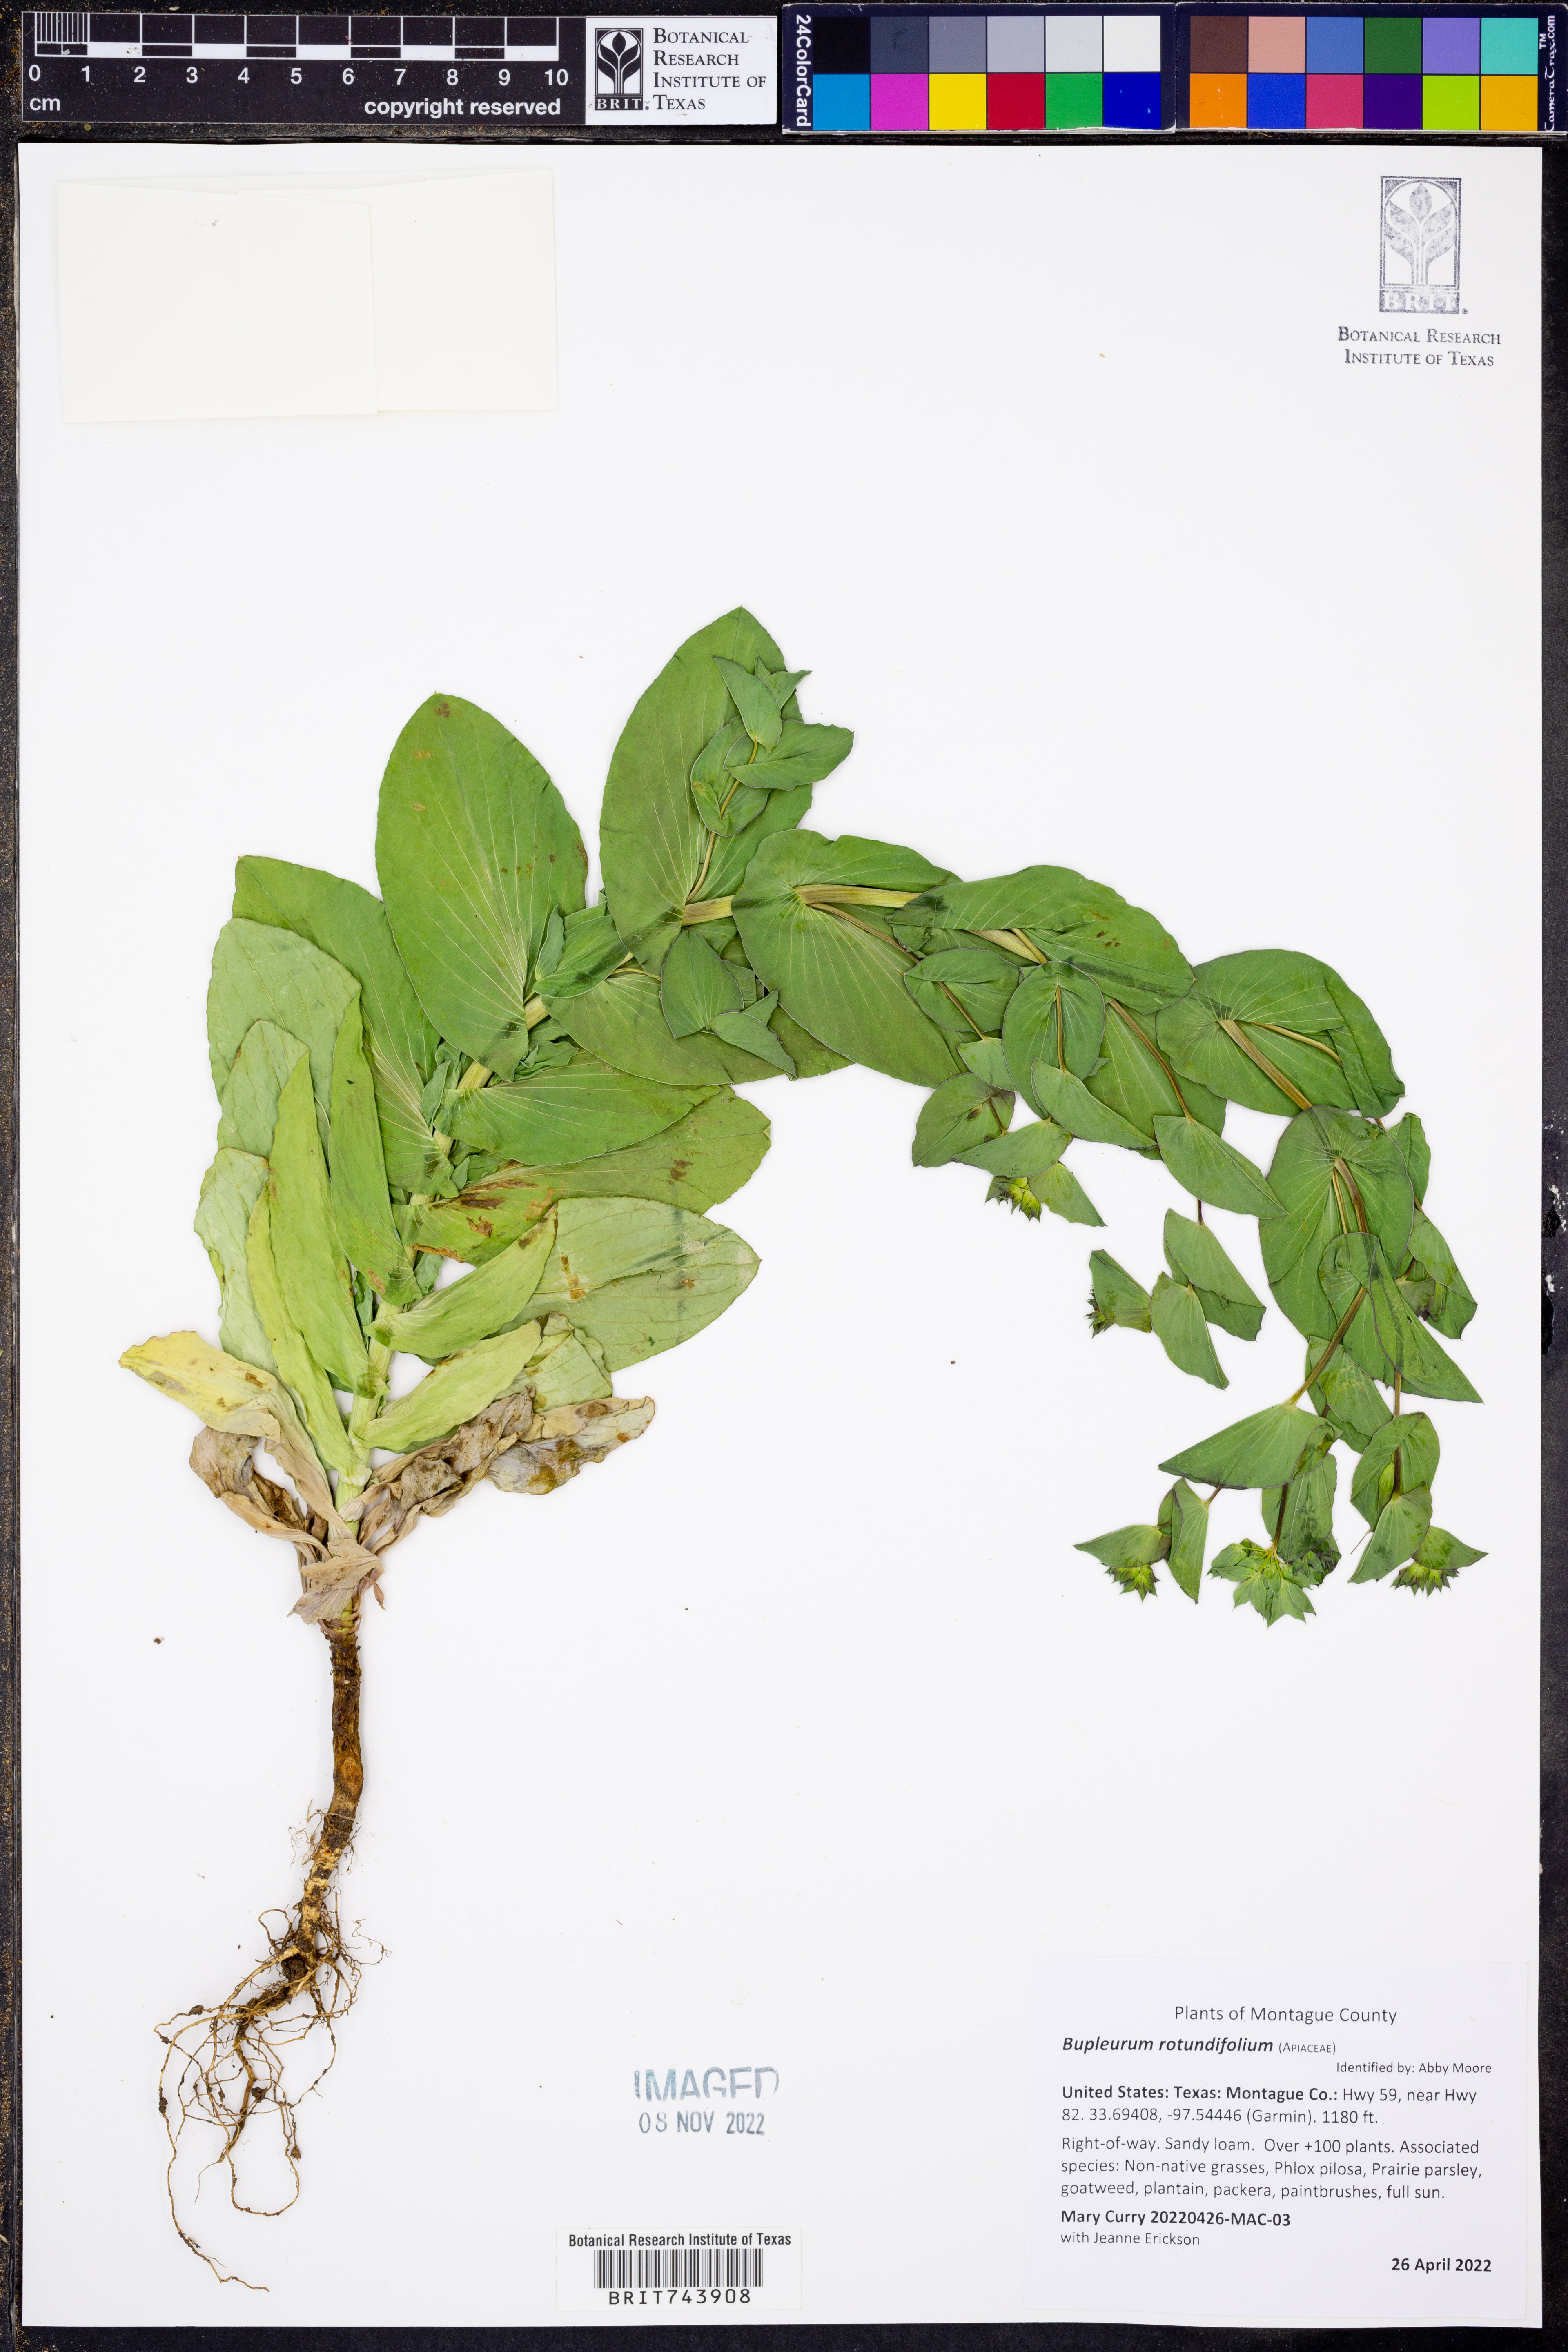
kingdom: Plantae
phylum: Tracheophyta
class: Magnoliopsida
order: Apiales
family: Apiaceae
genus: Bupleurum
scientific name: Bupleurum rotundifolium
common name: Thorow-wax
